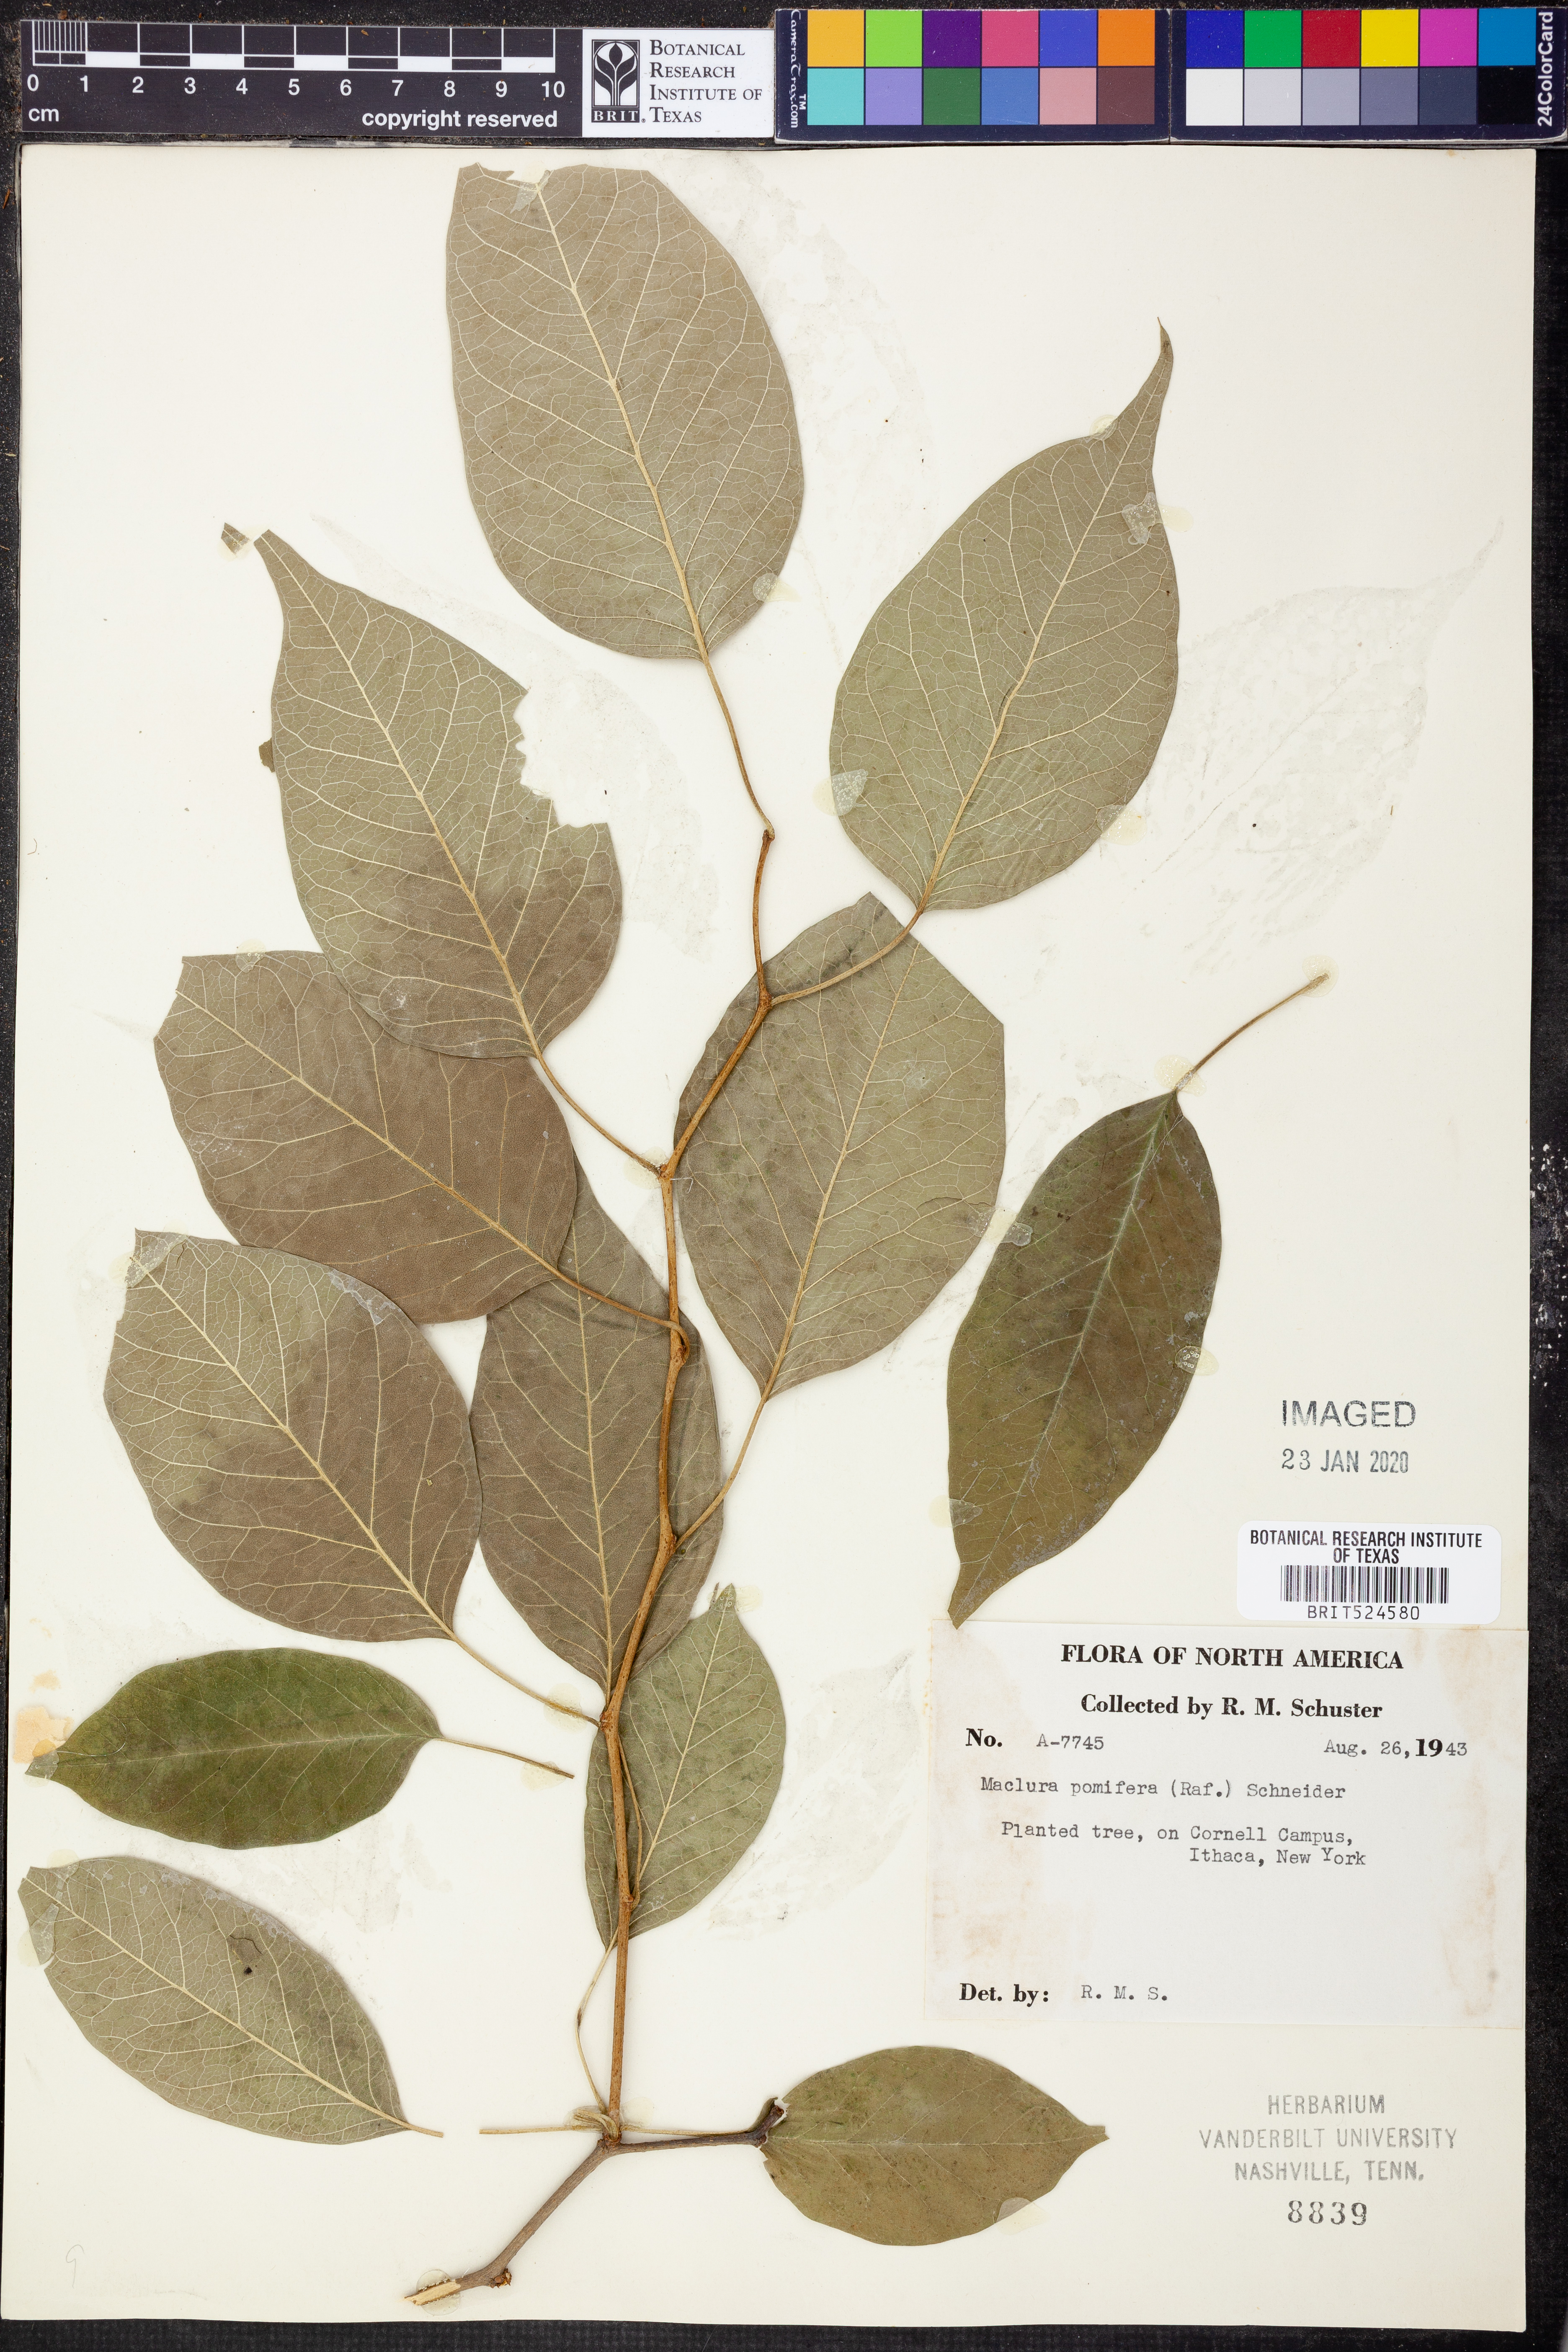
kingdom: Plantae
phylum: Tracheophyta
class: Magnoliopsida
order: Rosales
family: Moraceae
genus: Maclura
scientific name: Maclura pomifera
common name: Osage-orange
